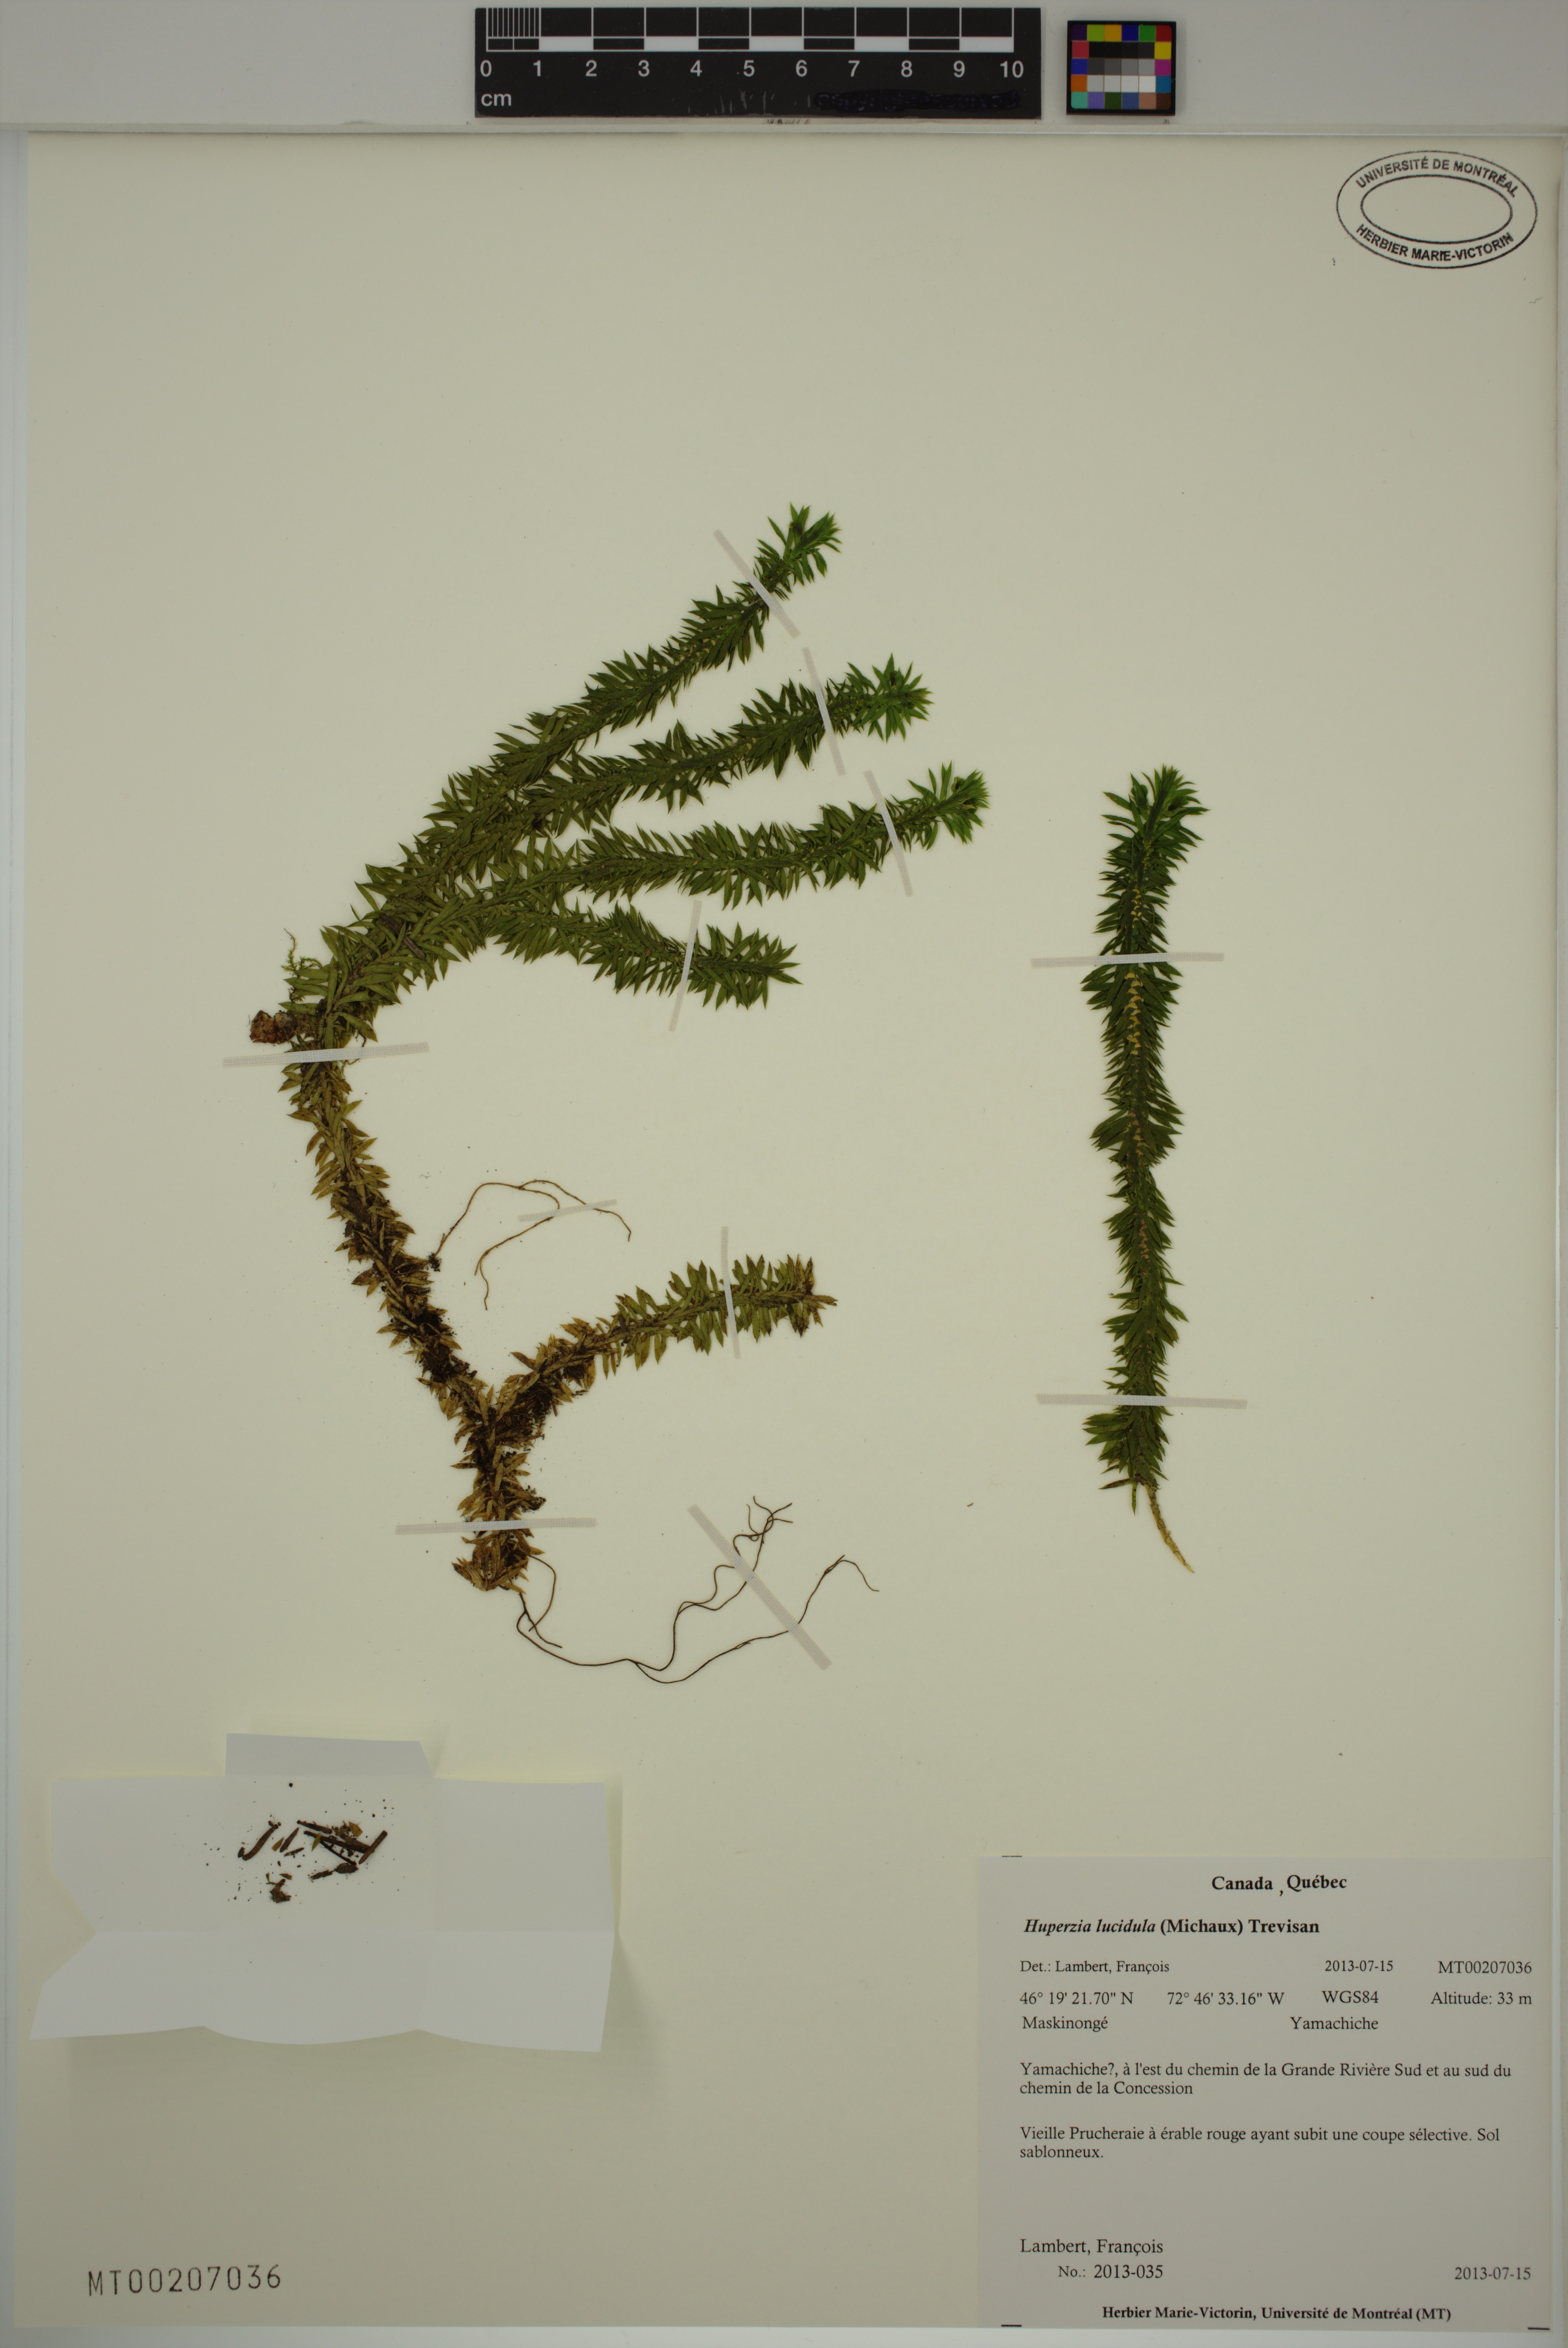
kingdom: Plantae
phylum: Tracheophyta
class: Lycopodiopsida
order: Lycopodiales
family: Lycopodiaceae
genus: Huperzia
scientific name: Huperzia lucidula
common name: Shining clubmoss
